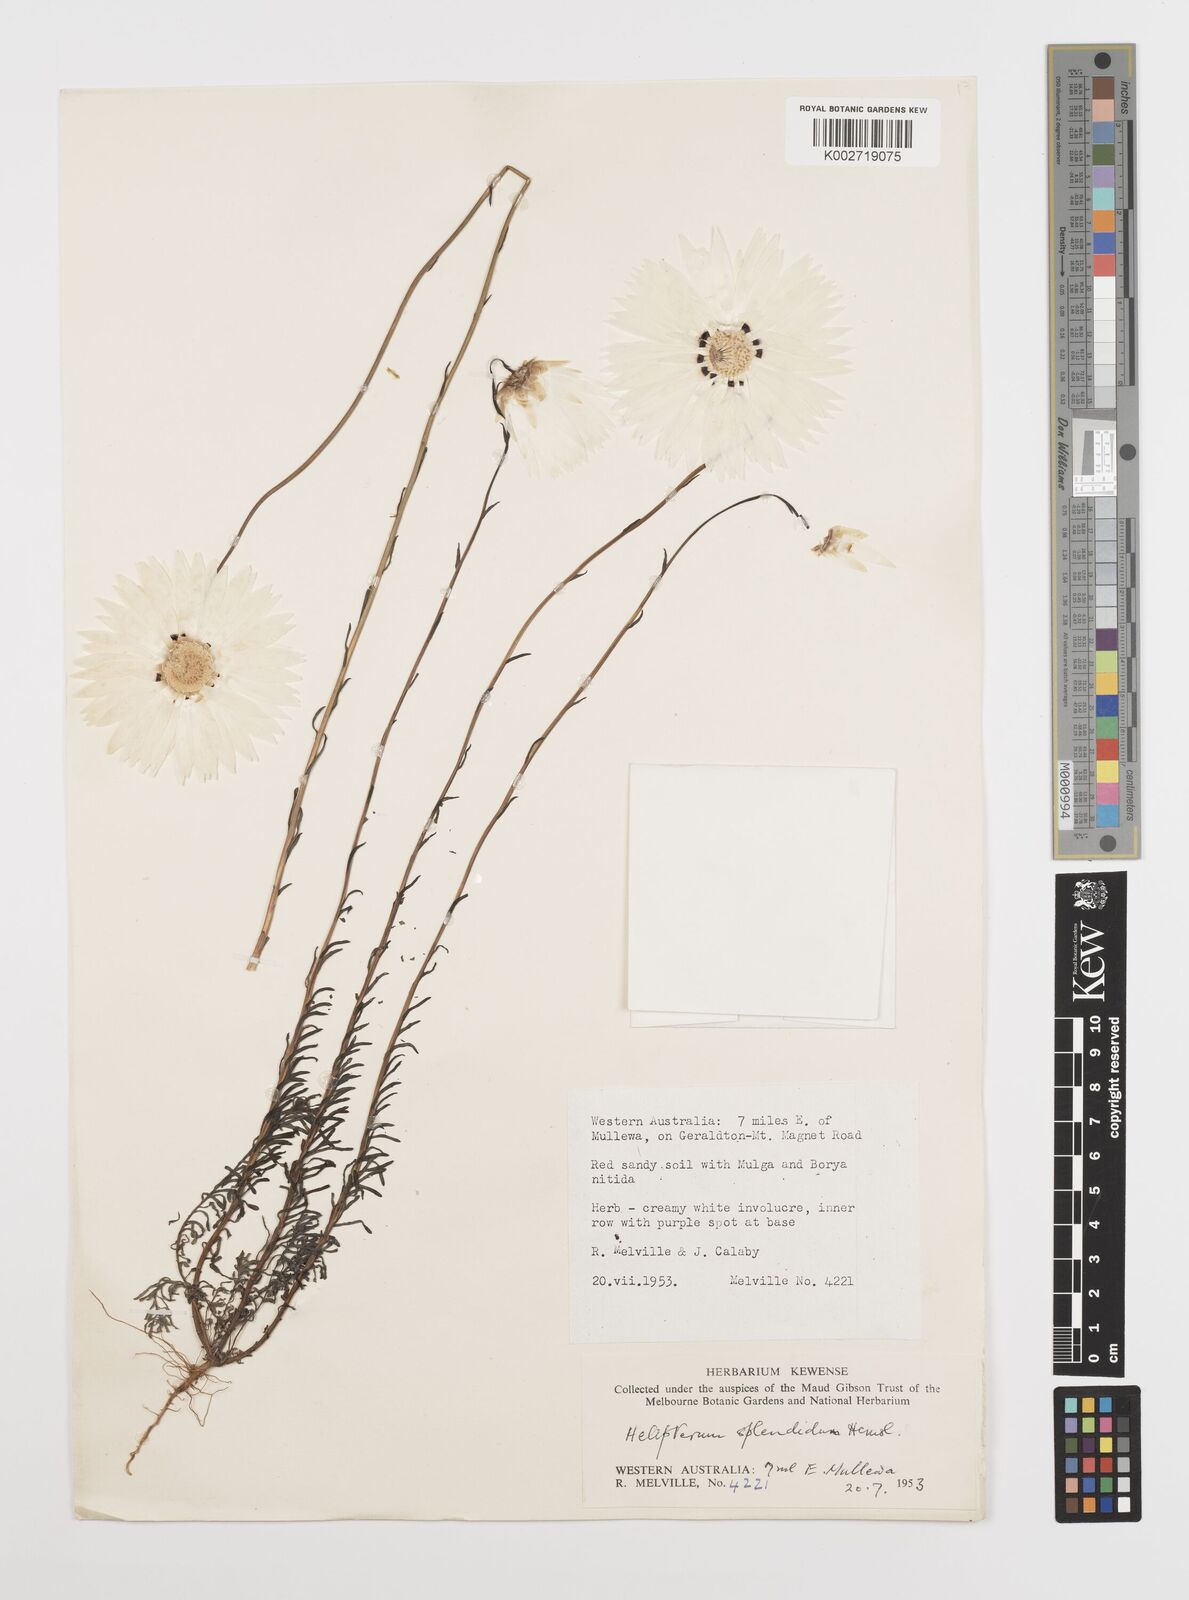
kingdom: Plantae
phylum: Tracheophyta
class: Magnoliopsida
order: Asterales
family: Asteraceae
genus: Rhodanthe
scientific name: Rhodanthe chlorocephala
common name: Rosy sunray
